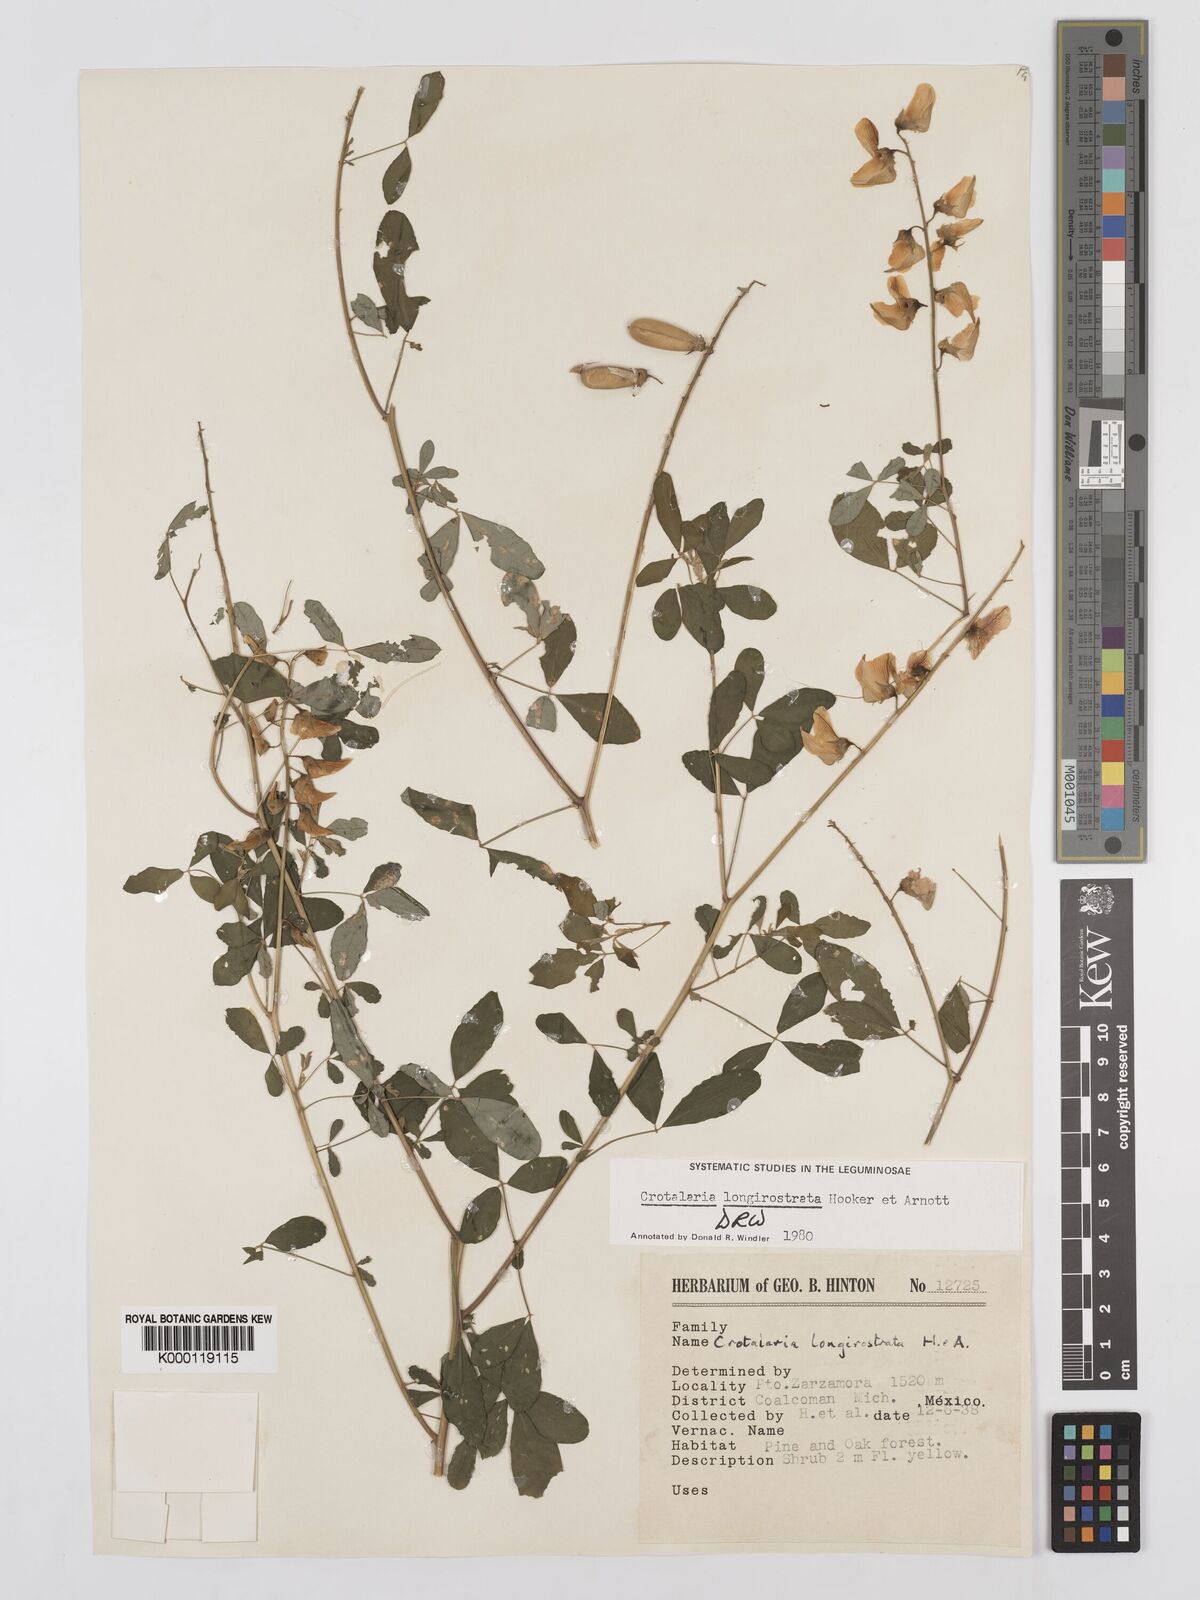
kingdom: Plantae
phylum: Tracheophyta
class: Magnoliopsida
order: Fabales
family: Fabaceae
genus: Crotalaria
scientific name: Crotalaria longirostrata
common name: Longbeak rattlebox
